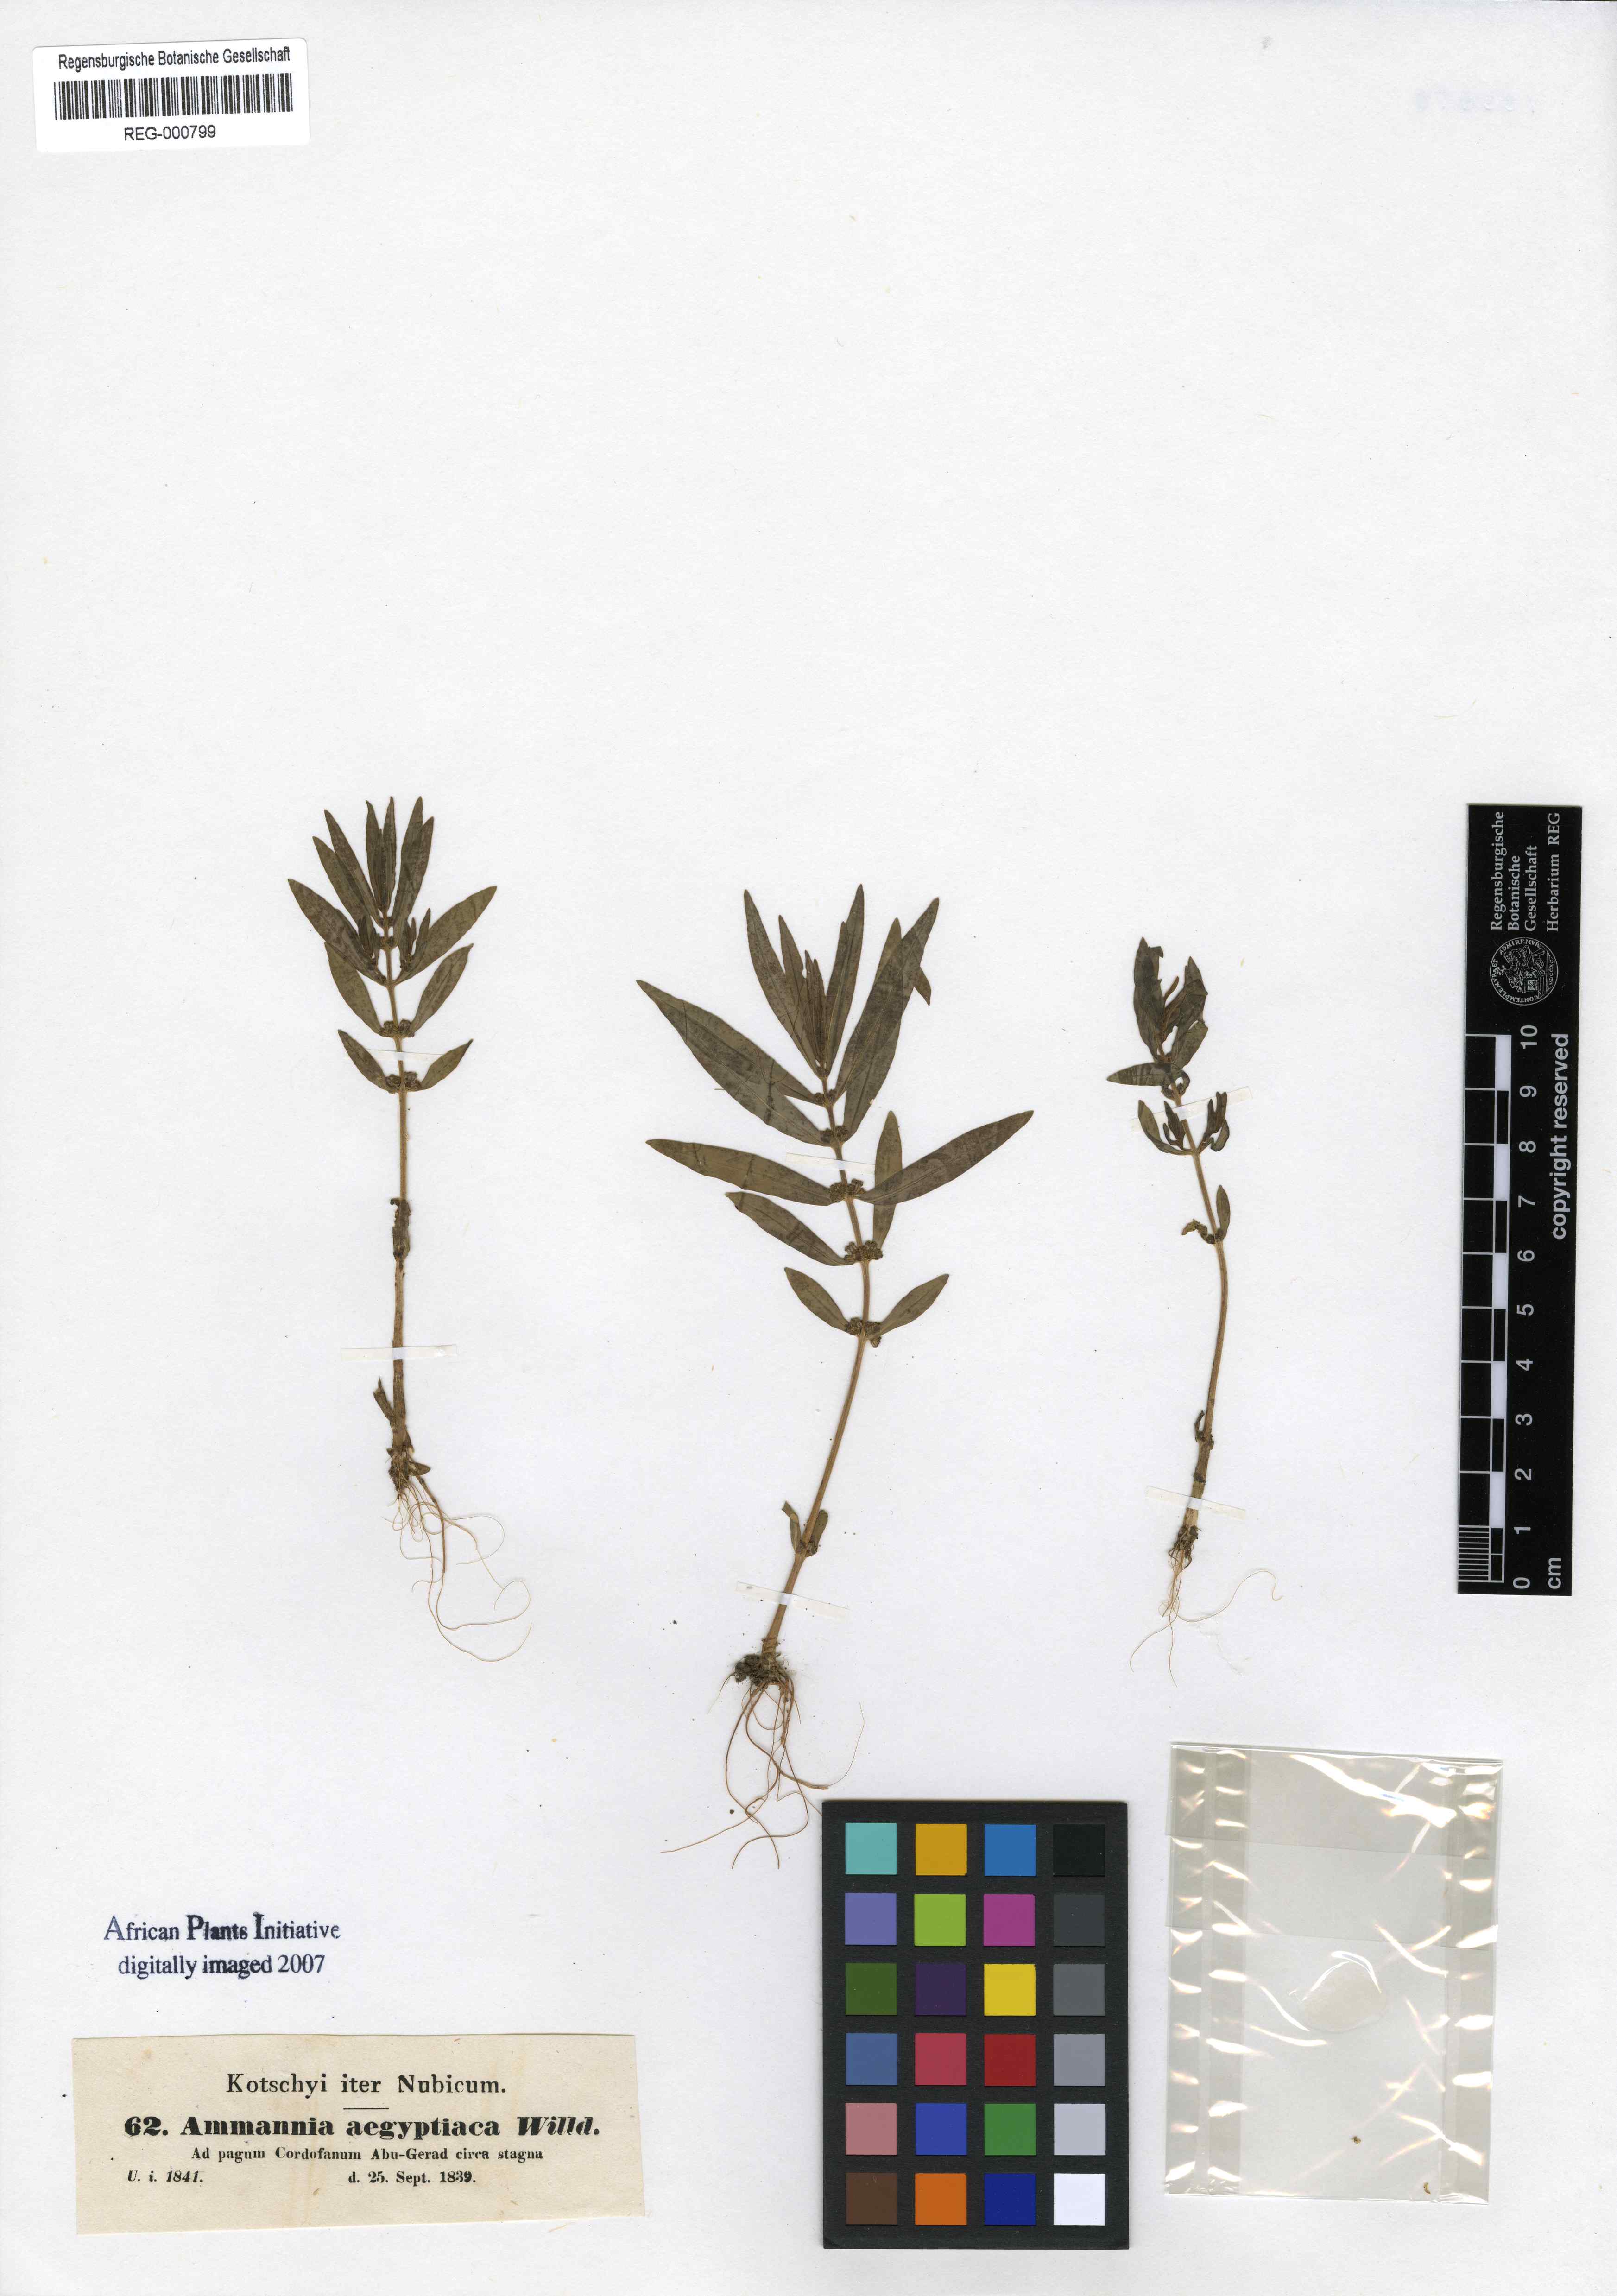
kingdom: Plantae
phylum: Tracheophyta
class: Magnoliopsida
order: Myrtales
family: Lythraceae
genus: Ammannia
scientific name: Ammannia baccifera
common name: Blistering ammania
